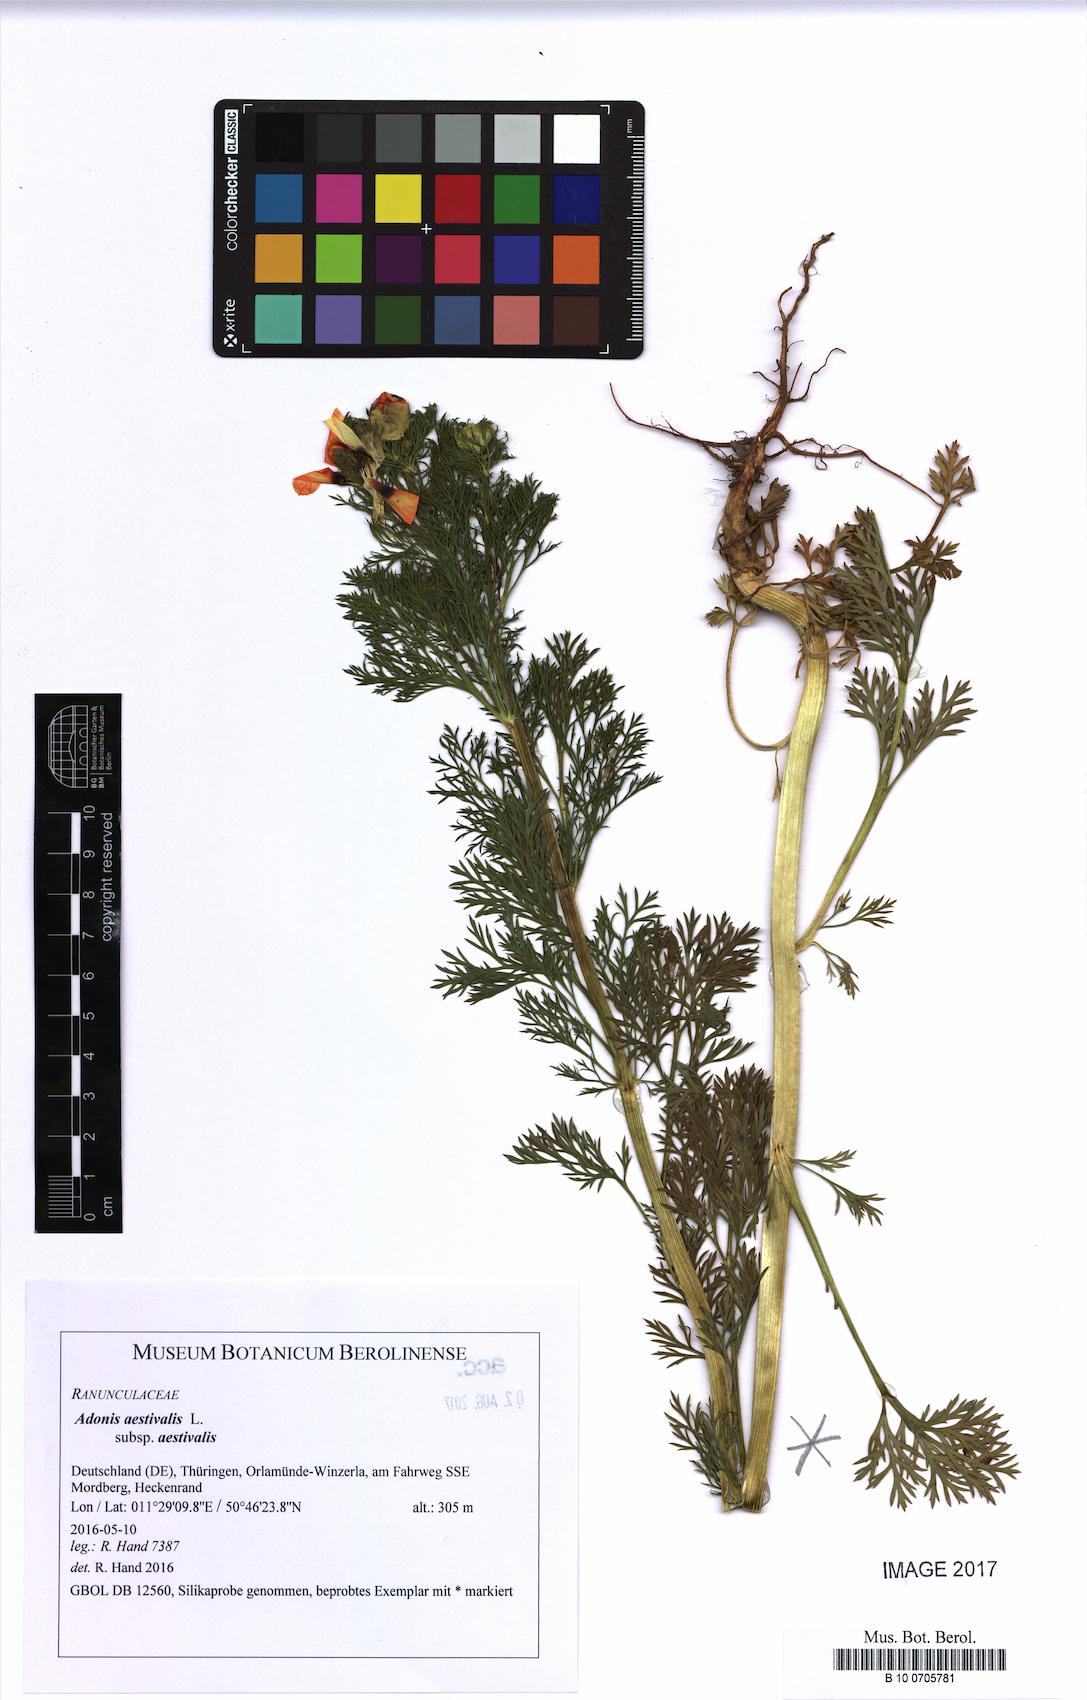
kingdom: Plantae
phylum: Tracheophyta
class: Magnoliopsida
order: Ranunculales
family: Ranunculaceae
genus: Adonis
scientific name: Adonis aestivalis
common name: Summer pheasant's-eye
